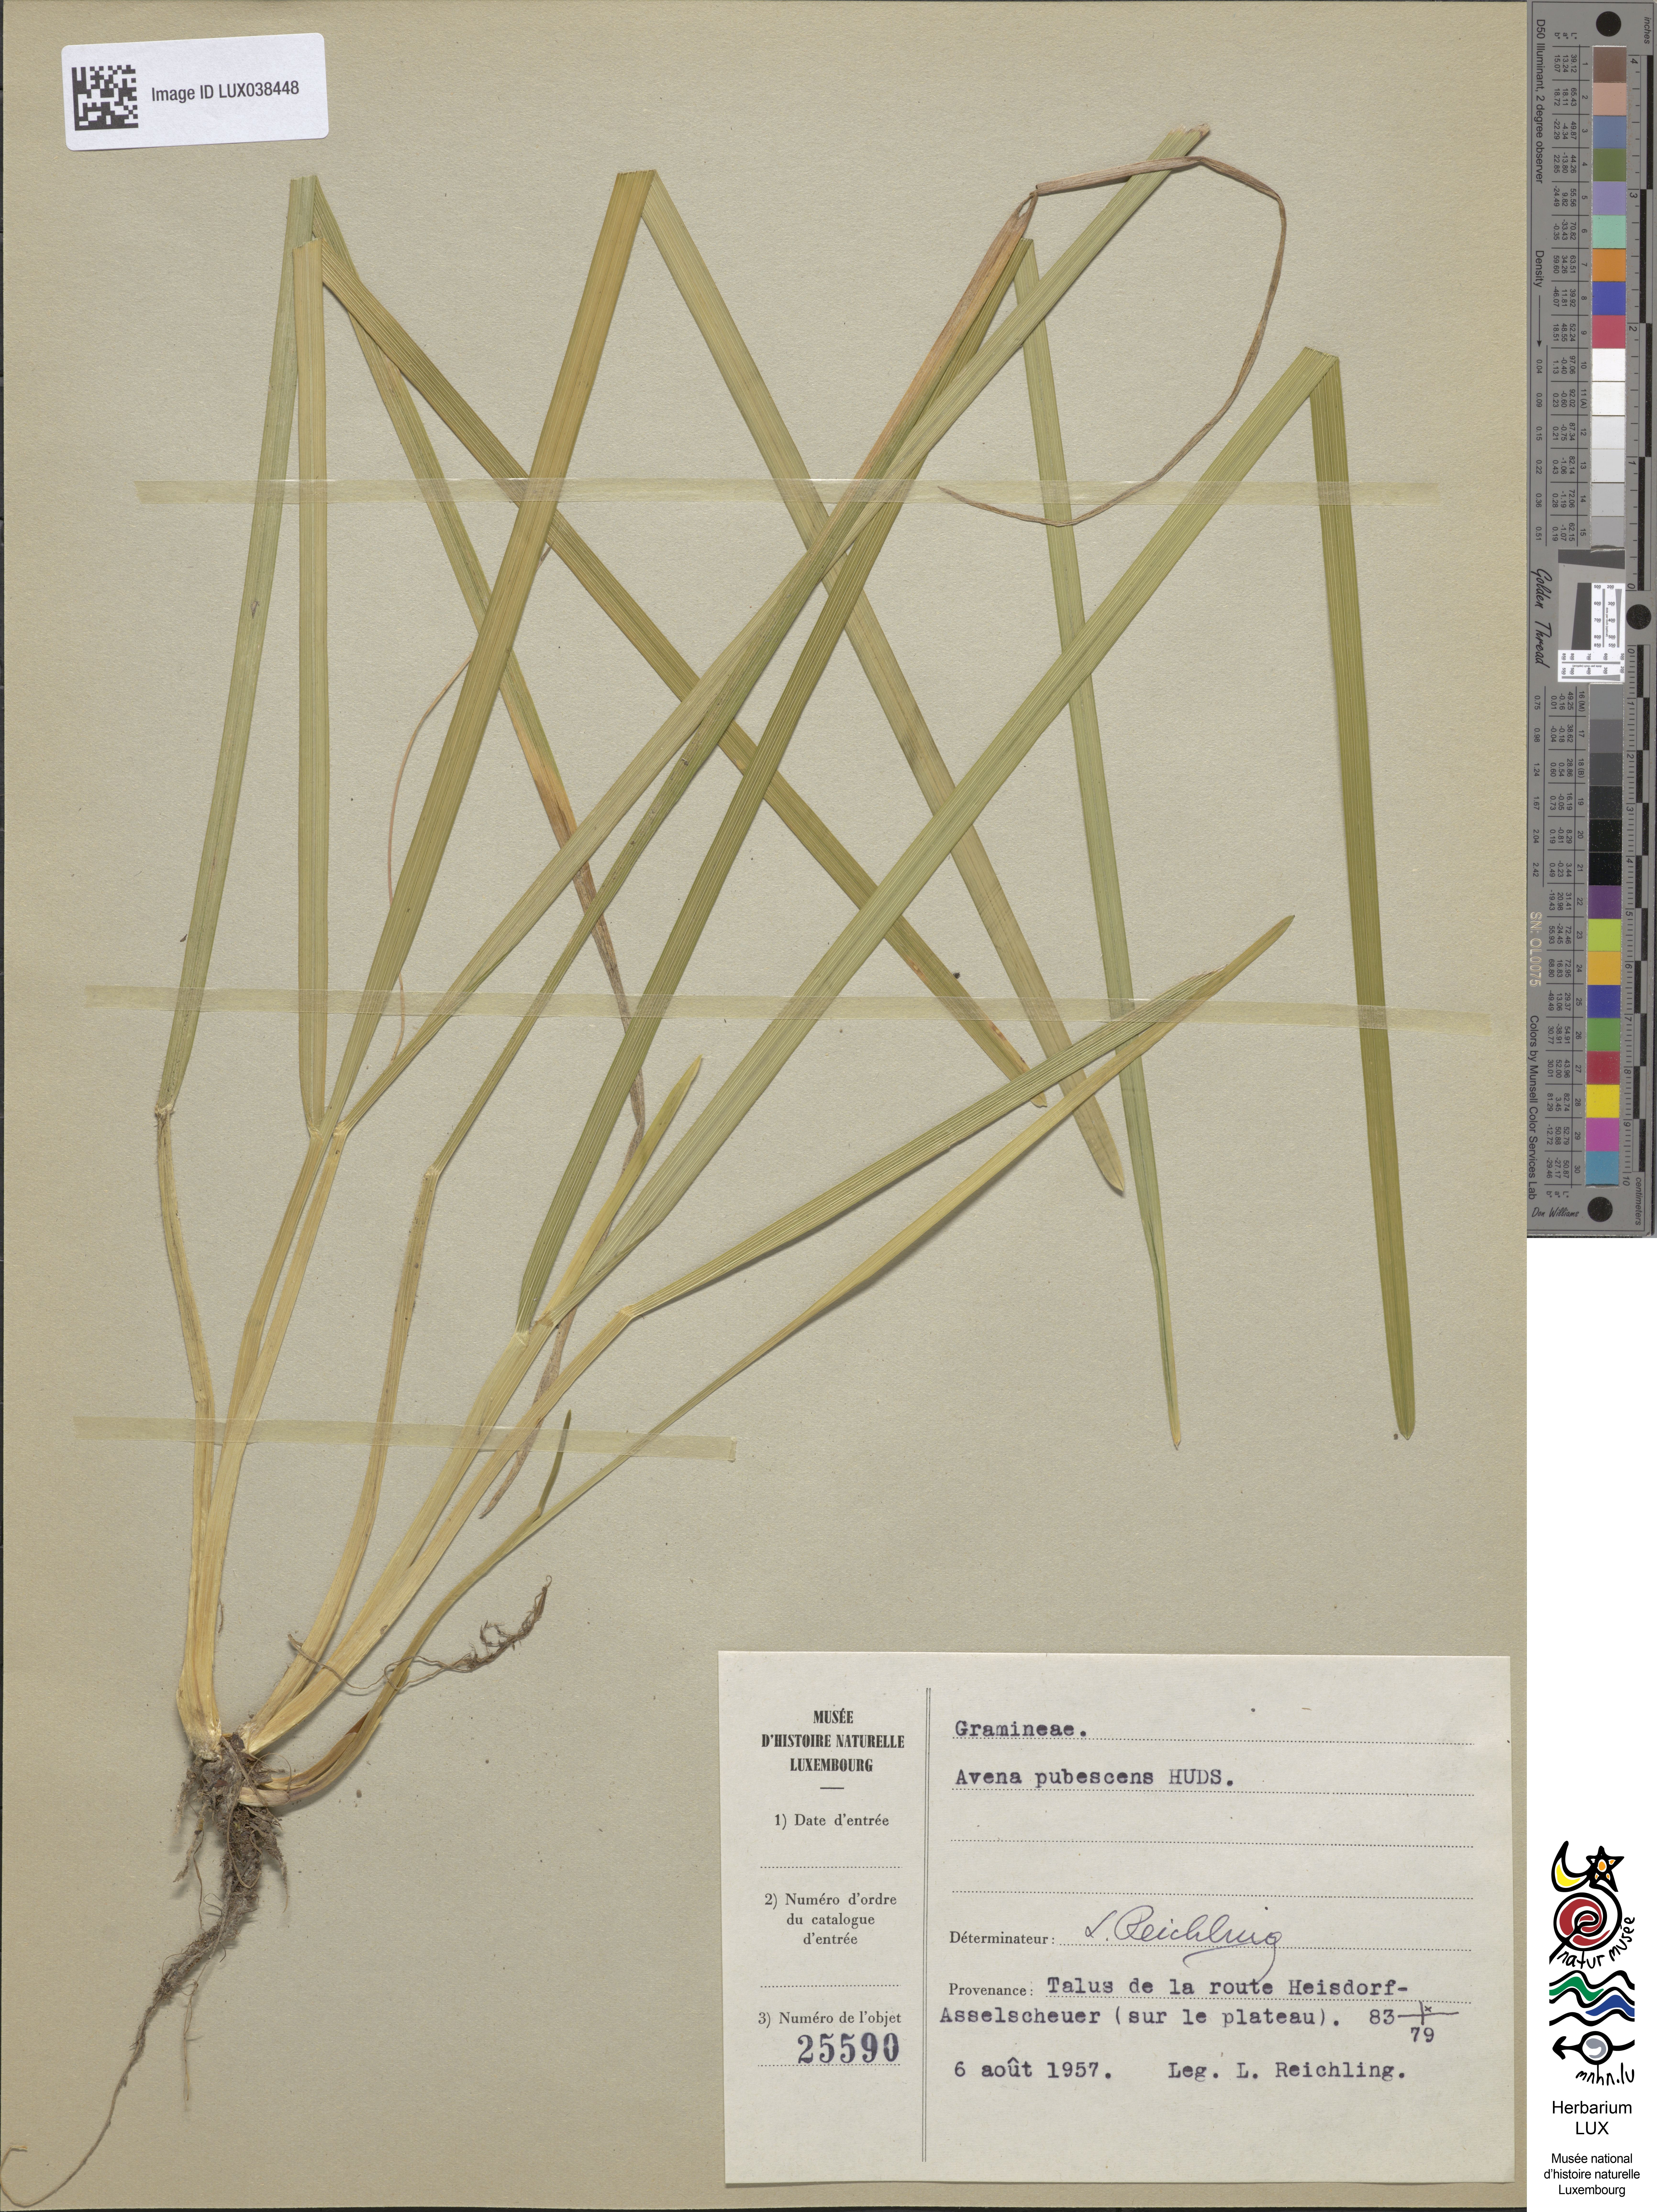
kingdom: Plantae
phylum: Tracheophyta
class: Liliopsida
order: Poales
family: Poaceae
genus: Avenula
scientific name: Avenula pubescens
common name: Downy alpine oatgrass
